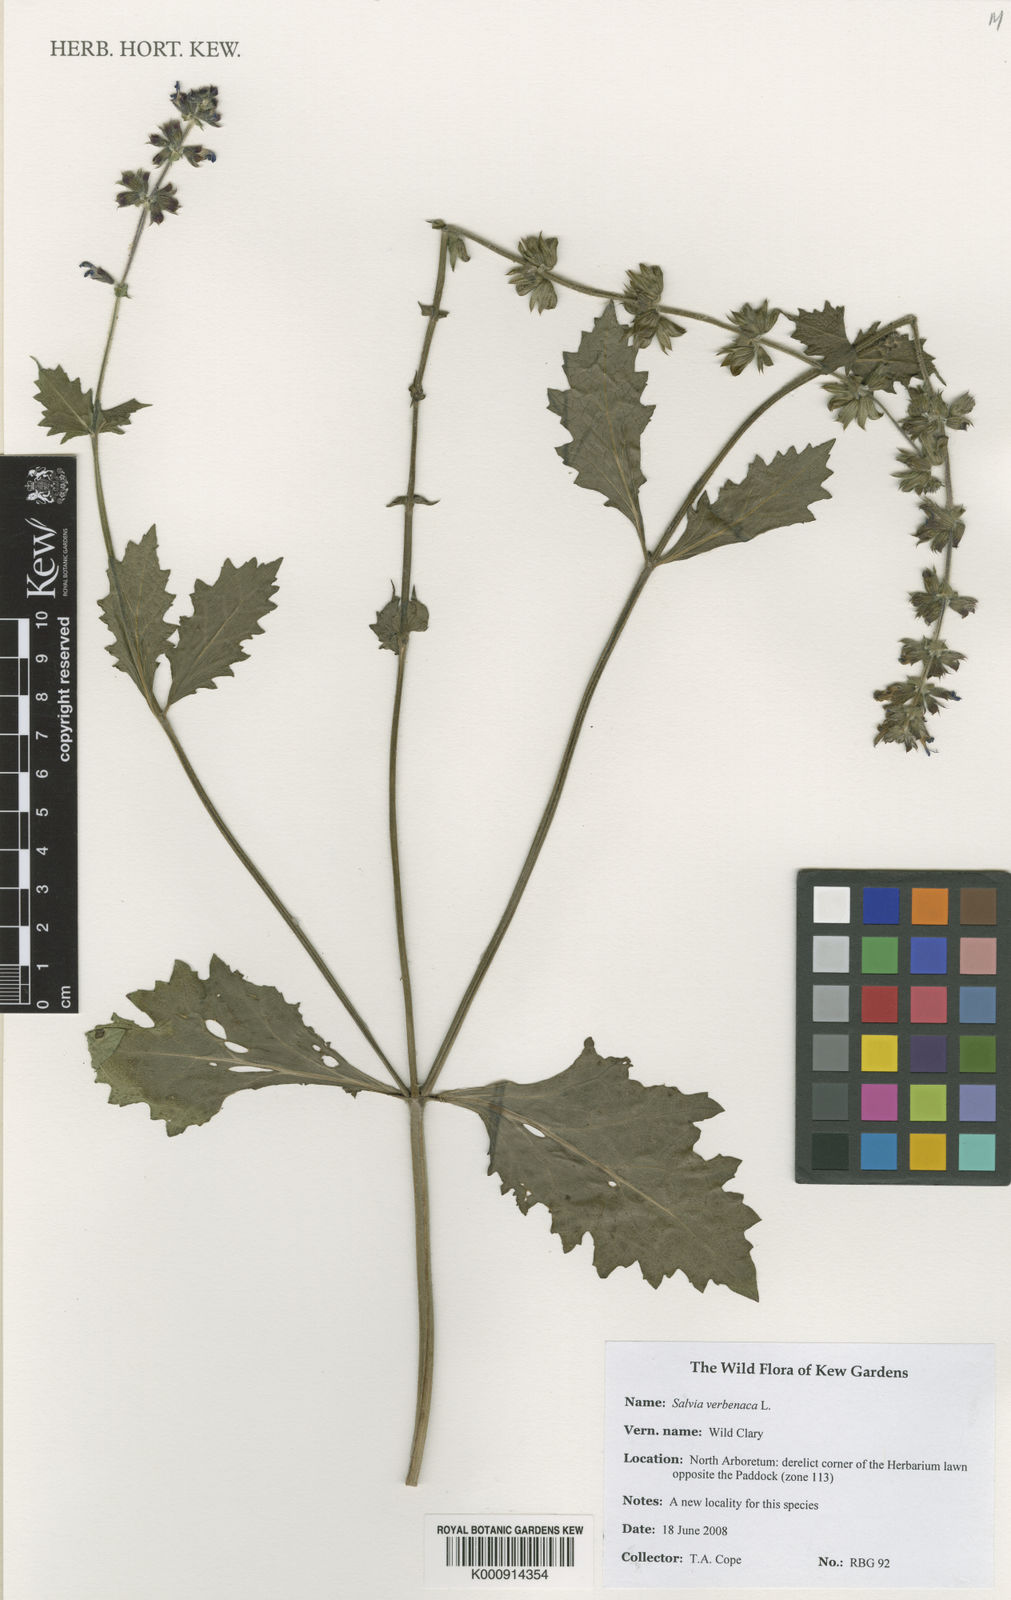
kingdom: Plantae
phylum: Tracheophyta
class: Magnoliopsida
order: Lamiales
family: Lamiaceae
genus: Salvia
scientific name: Salvia verbenaca
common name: Wild clary
